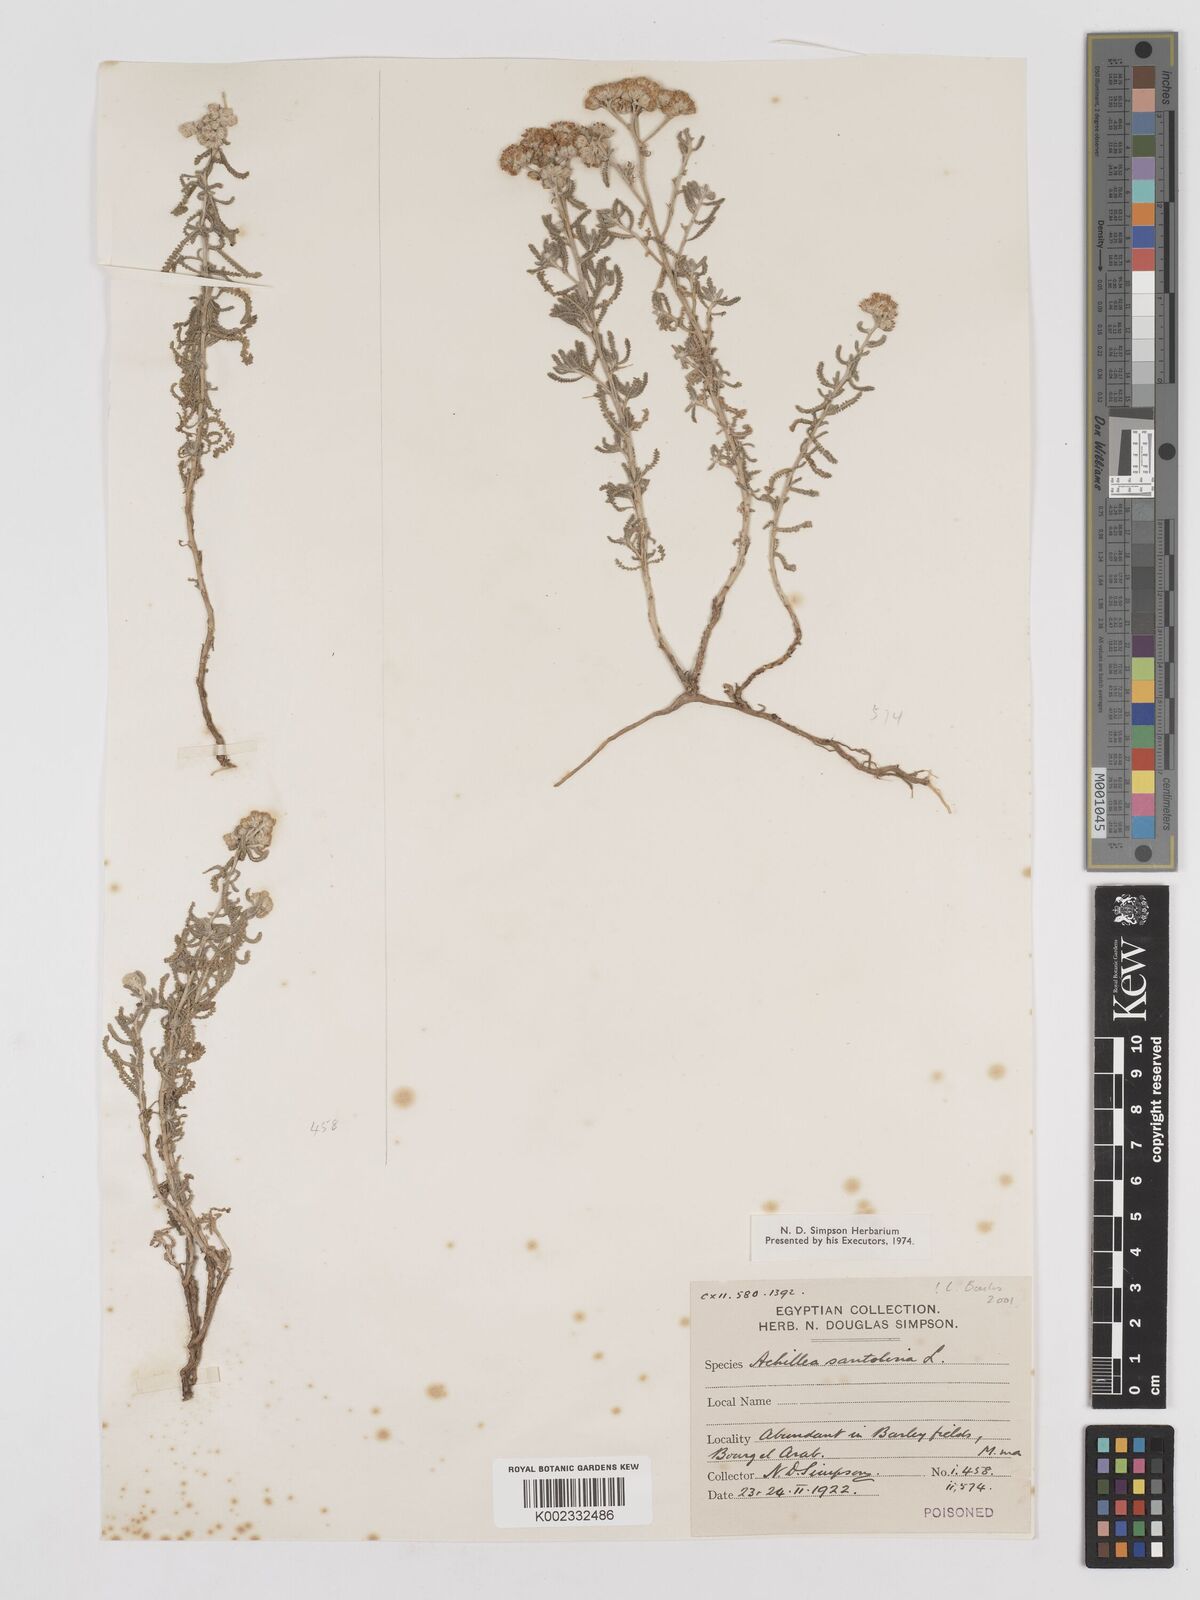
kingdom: Plantae
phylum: Tracheophyta
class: Magnoliopsida
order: Asterales
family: Asteraceae
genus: Achillea
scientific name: Achillea tenuifolia
